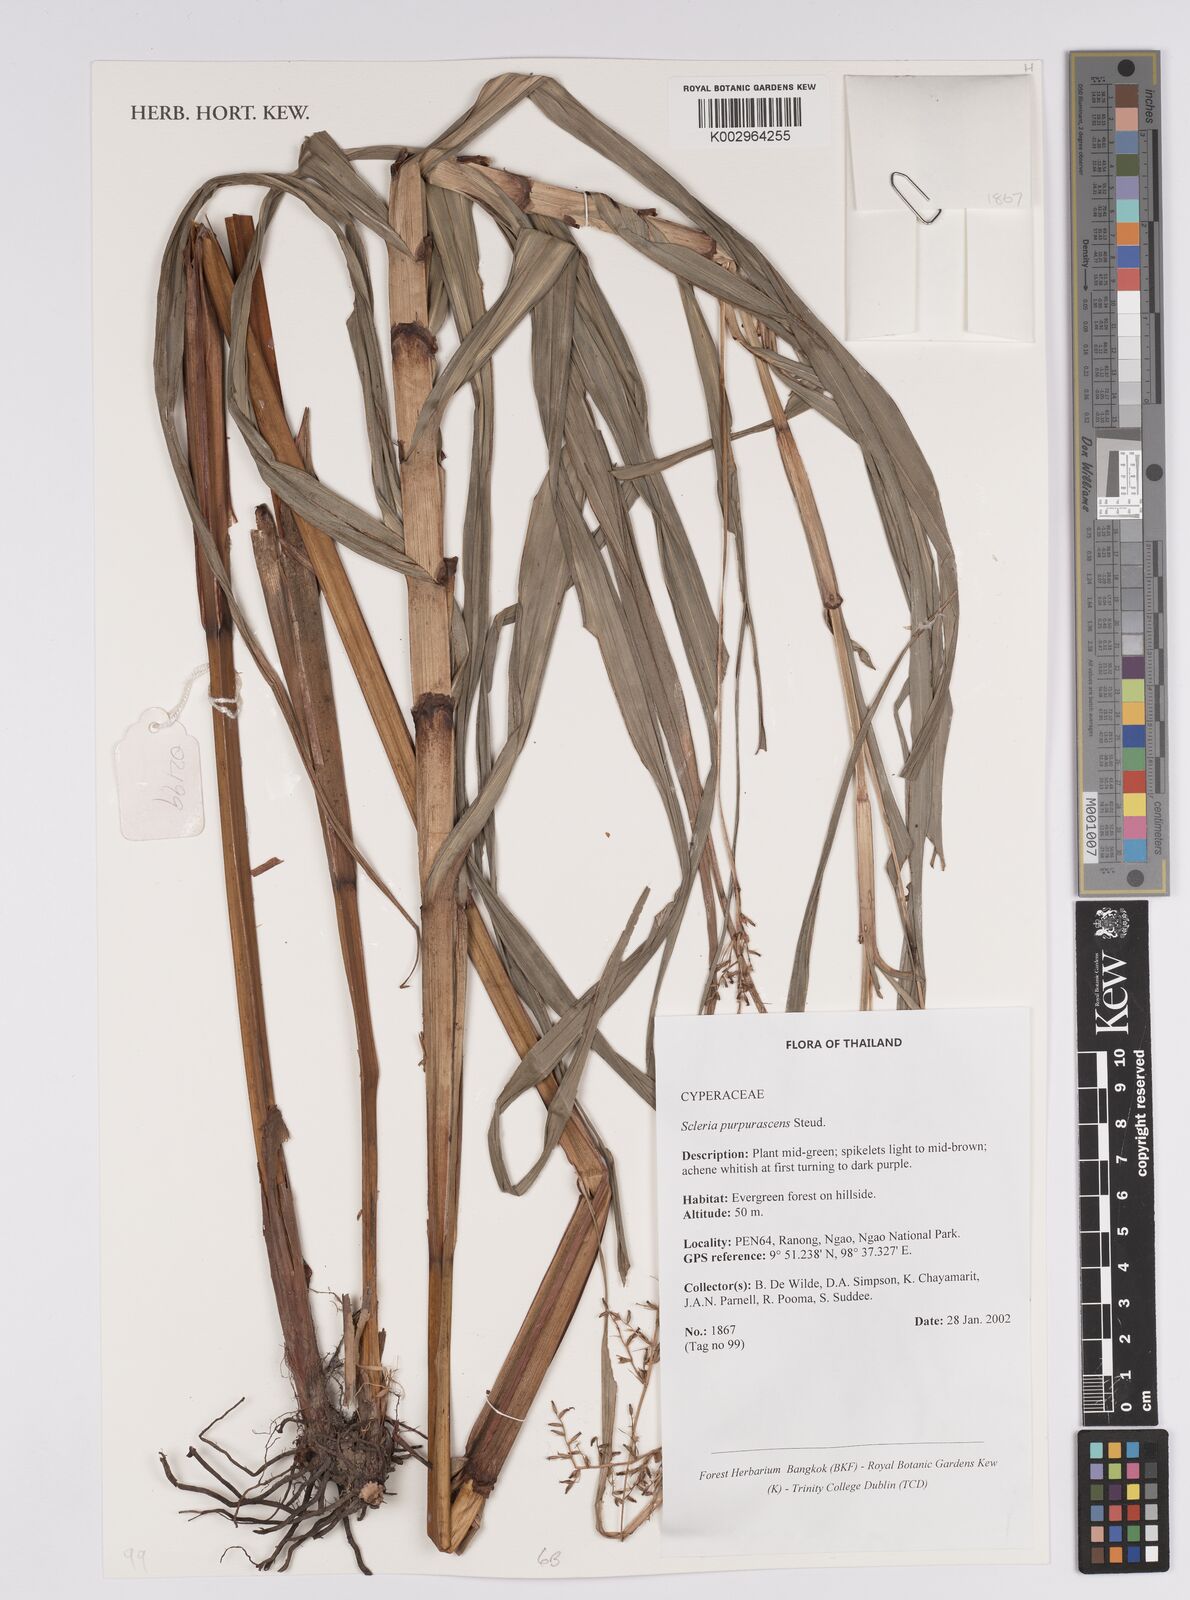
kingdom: Plantae
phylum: Tracheophyta
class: Liliopsida
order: Poales
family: Cyperaceae
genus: Scleria
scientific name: Scleria purpurascens
